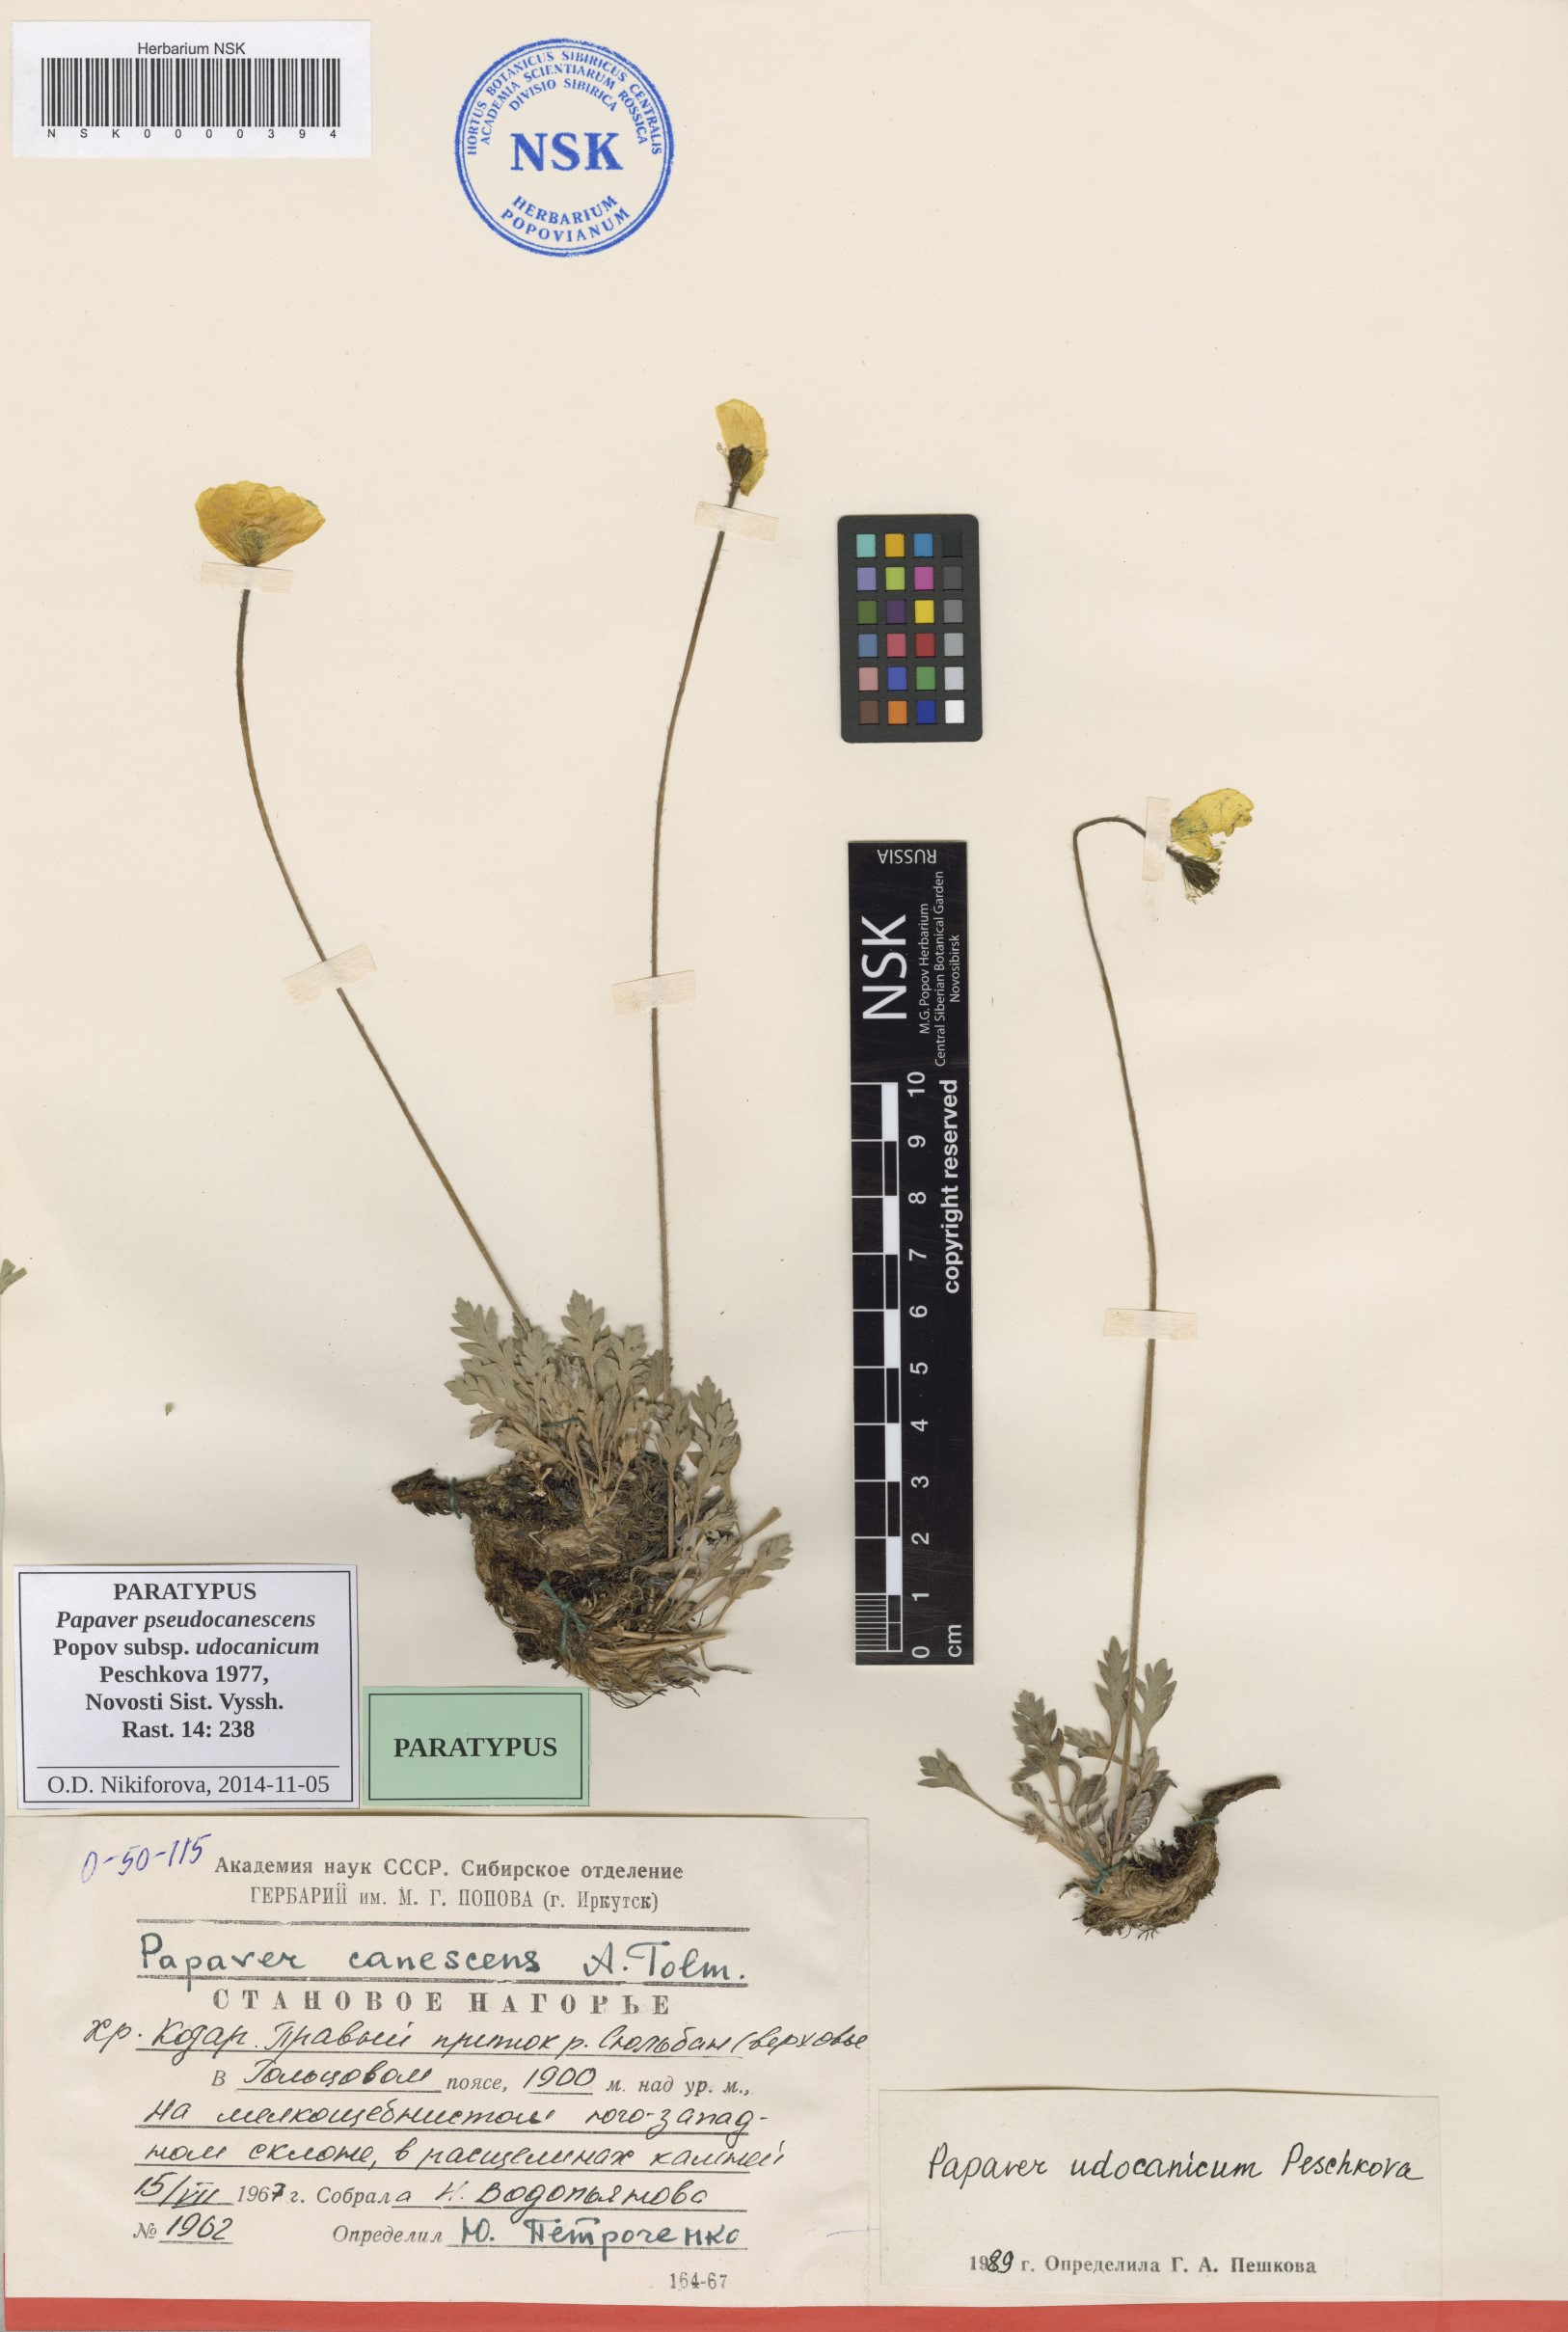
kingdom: Plantae
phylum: Tracheophyta
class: Magnoliopsida
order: Ranunculales
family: Papaveraceae
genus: Papaver
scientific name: Papaver udocanicum
